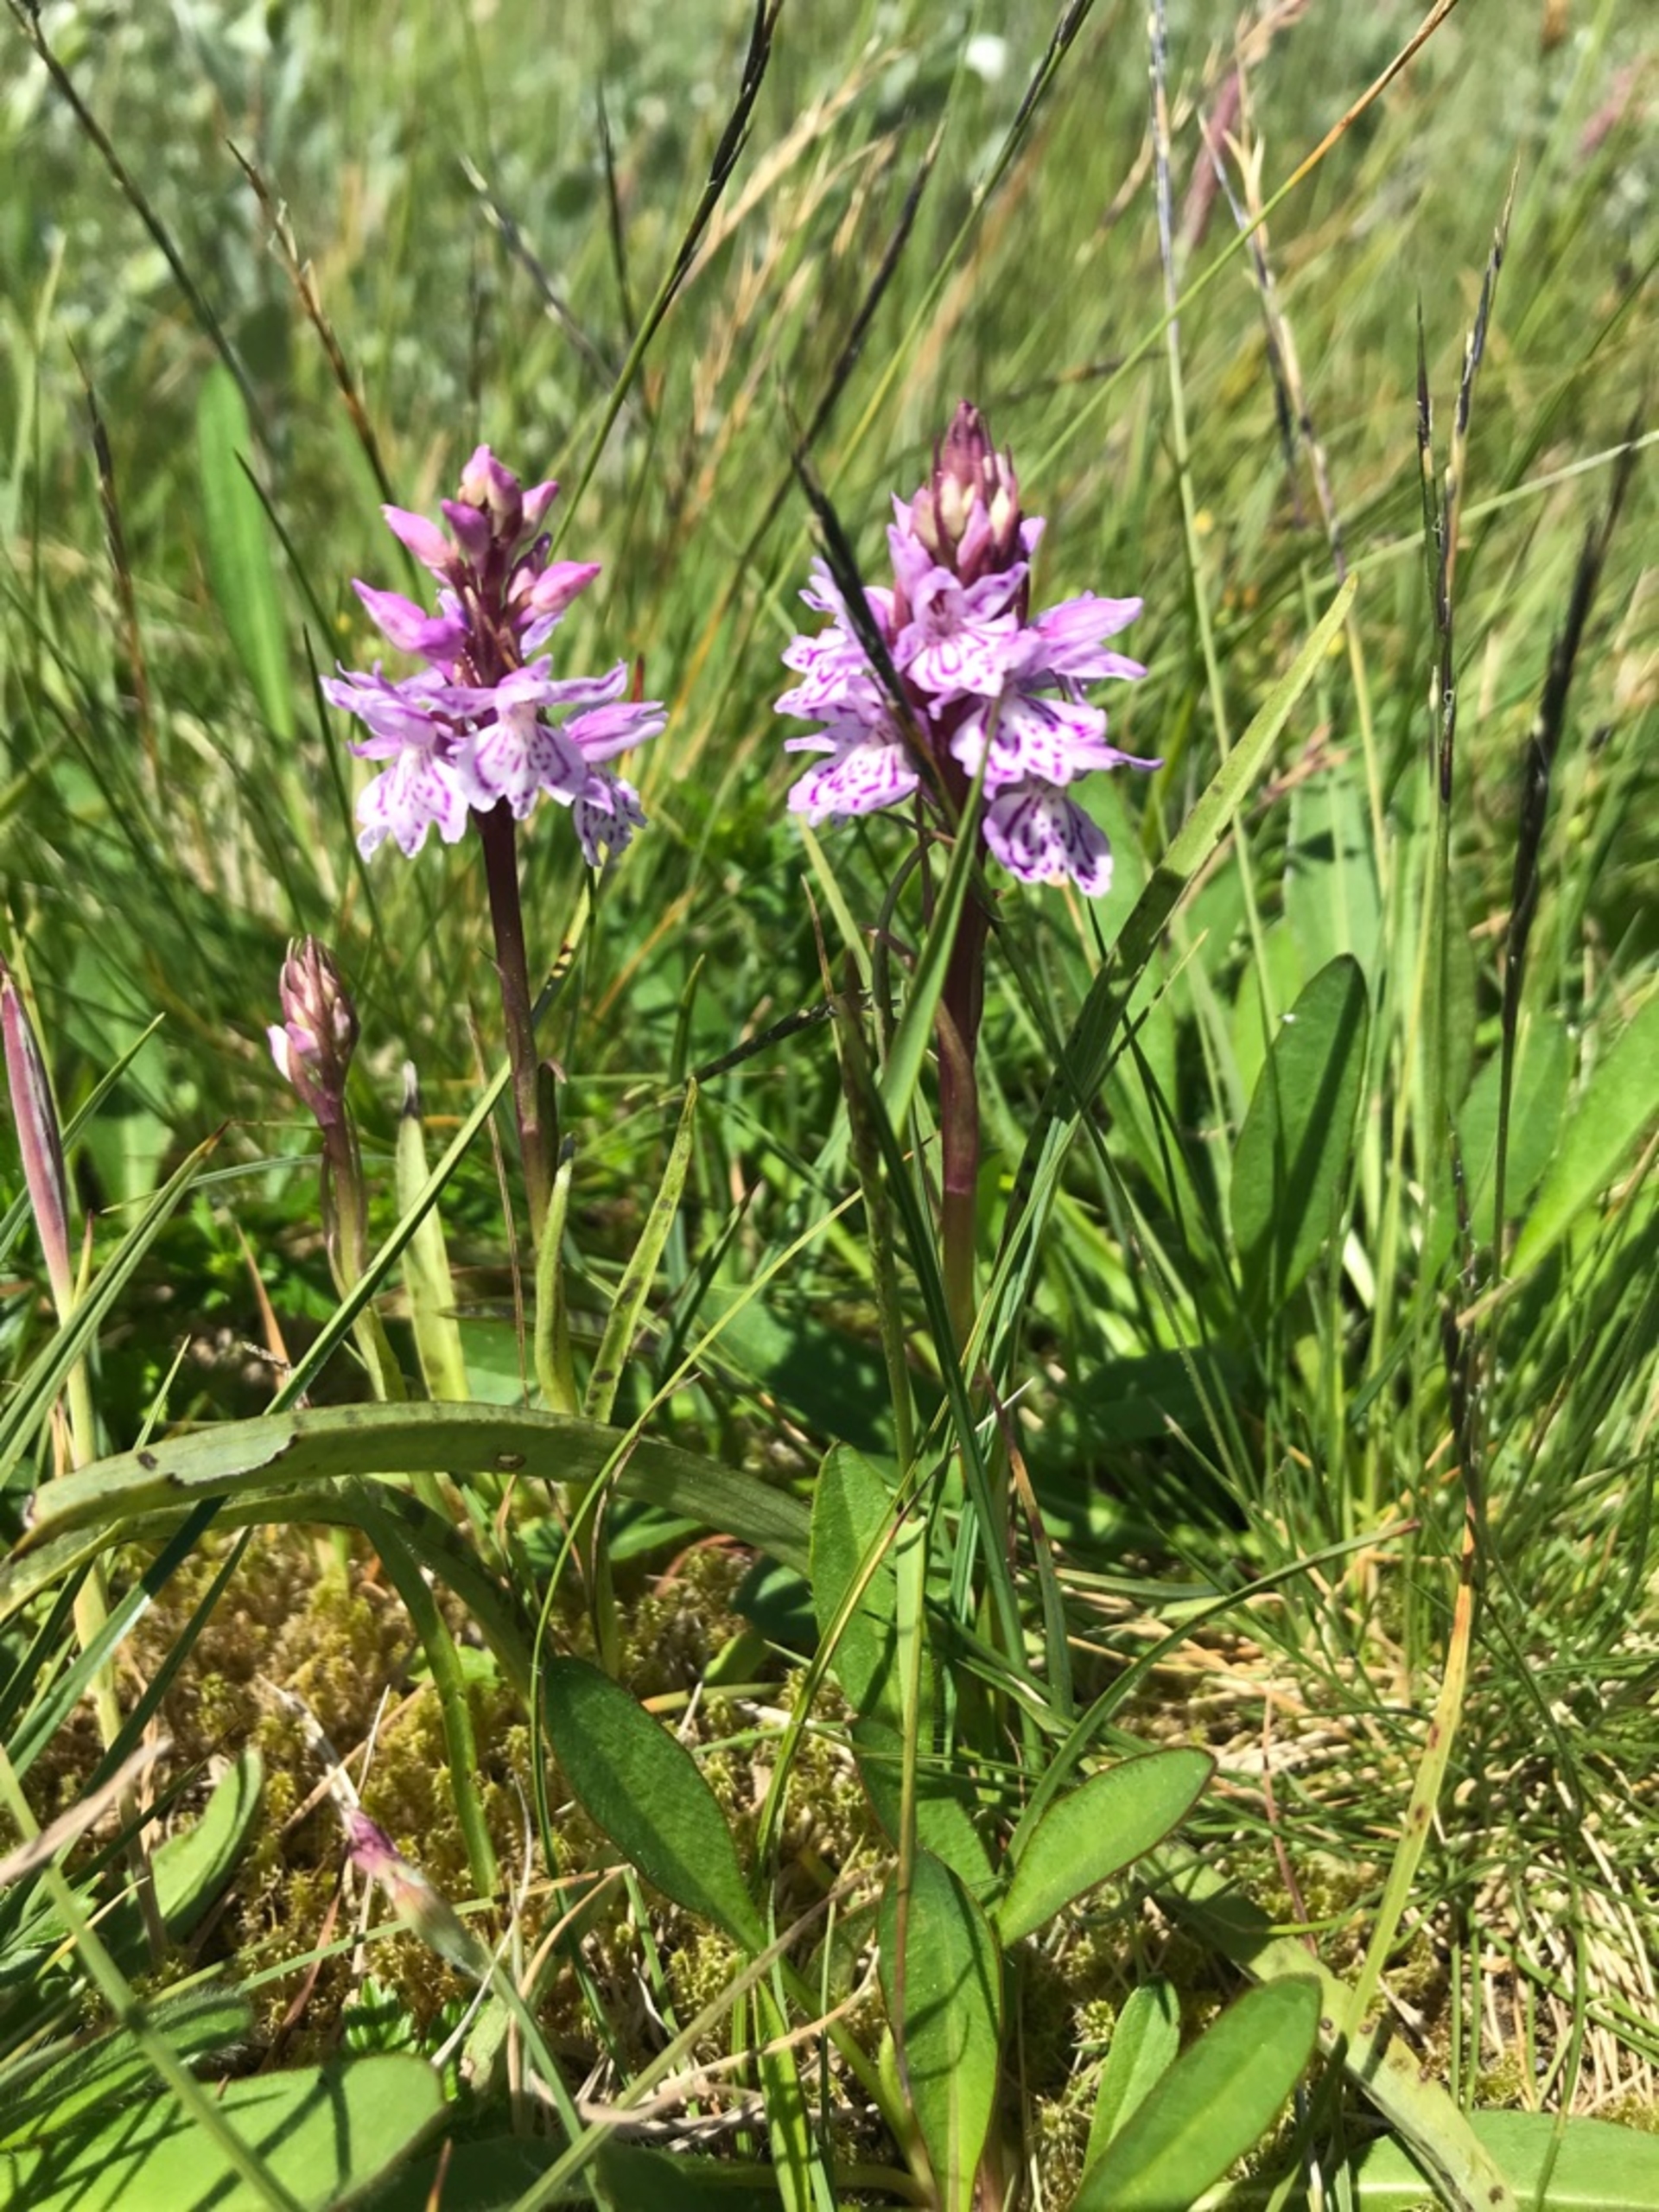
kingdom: Plantae
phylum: Tracheophyta
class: Liliopsida
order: Asparagales
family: Orchidaceae
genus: Dactylorhiza
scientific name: Dactylorhiza maculata
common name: Plettet gøgeurt
